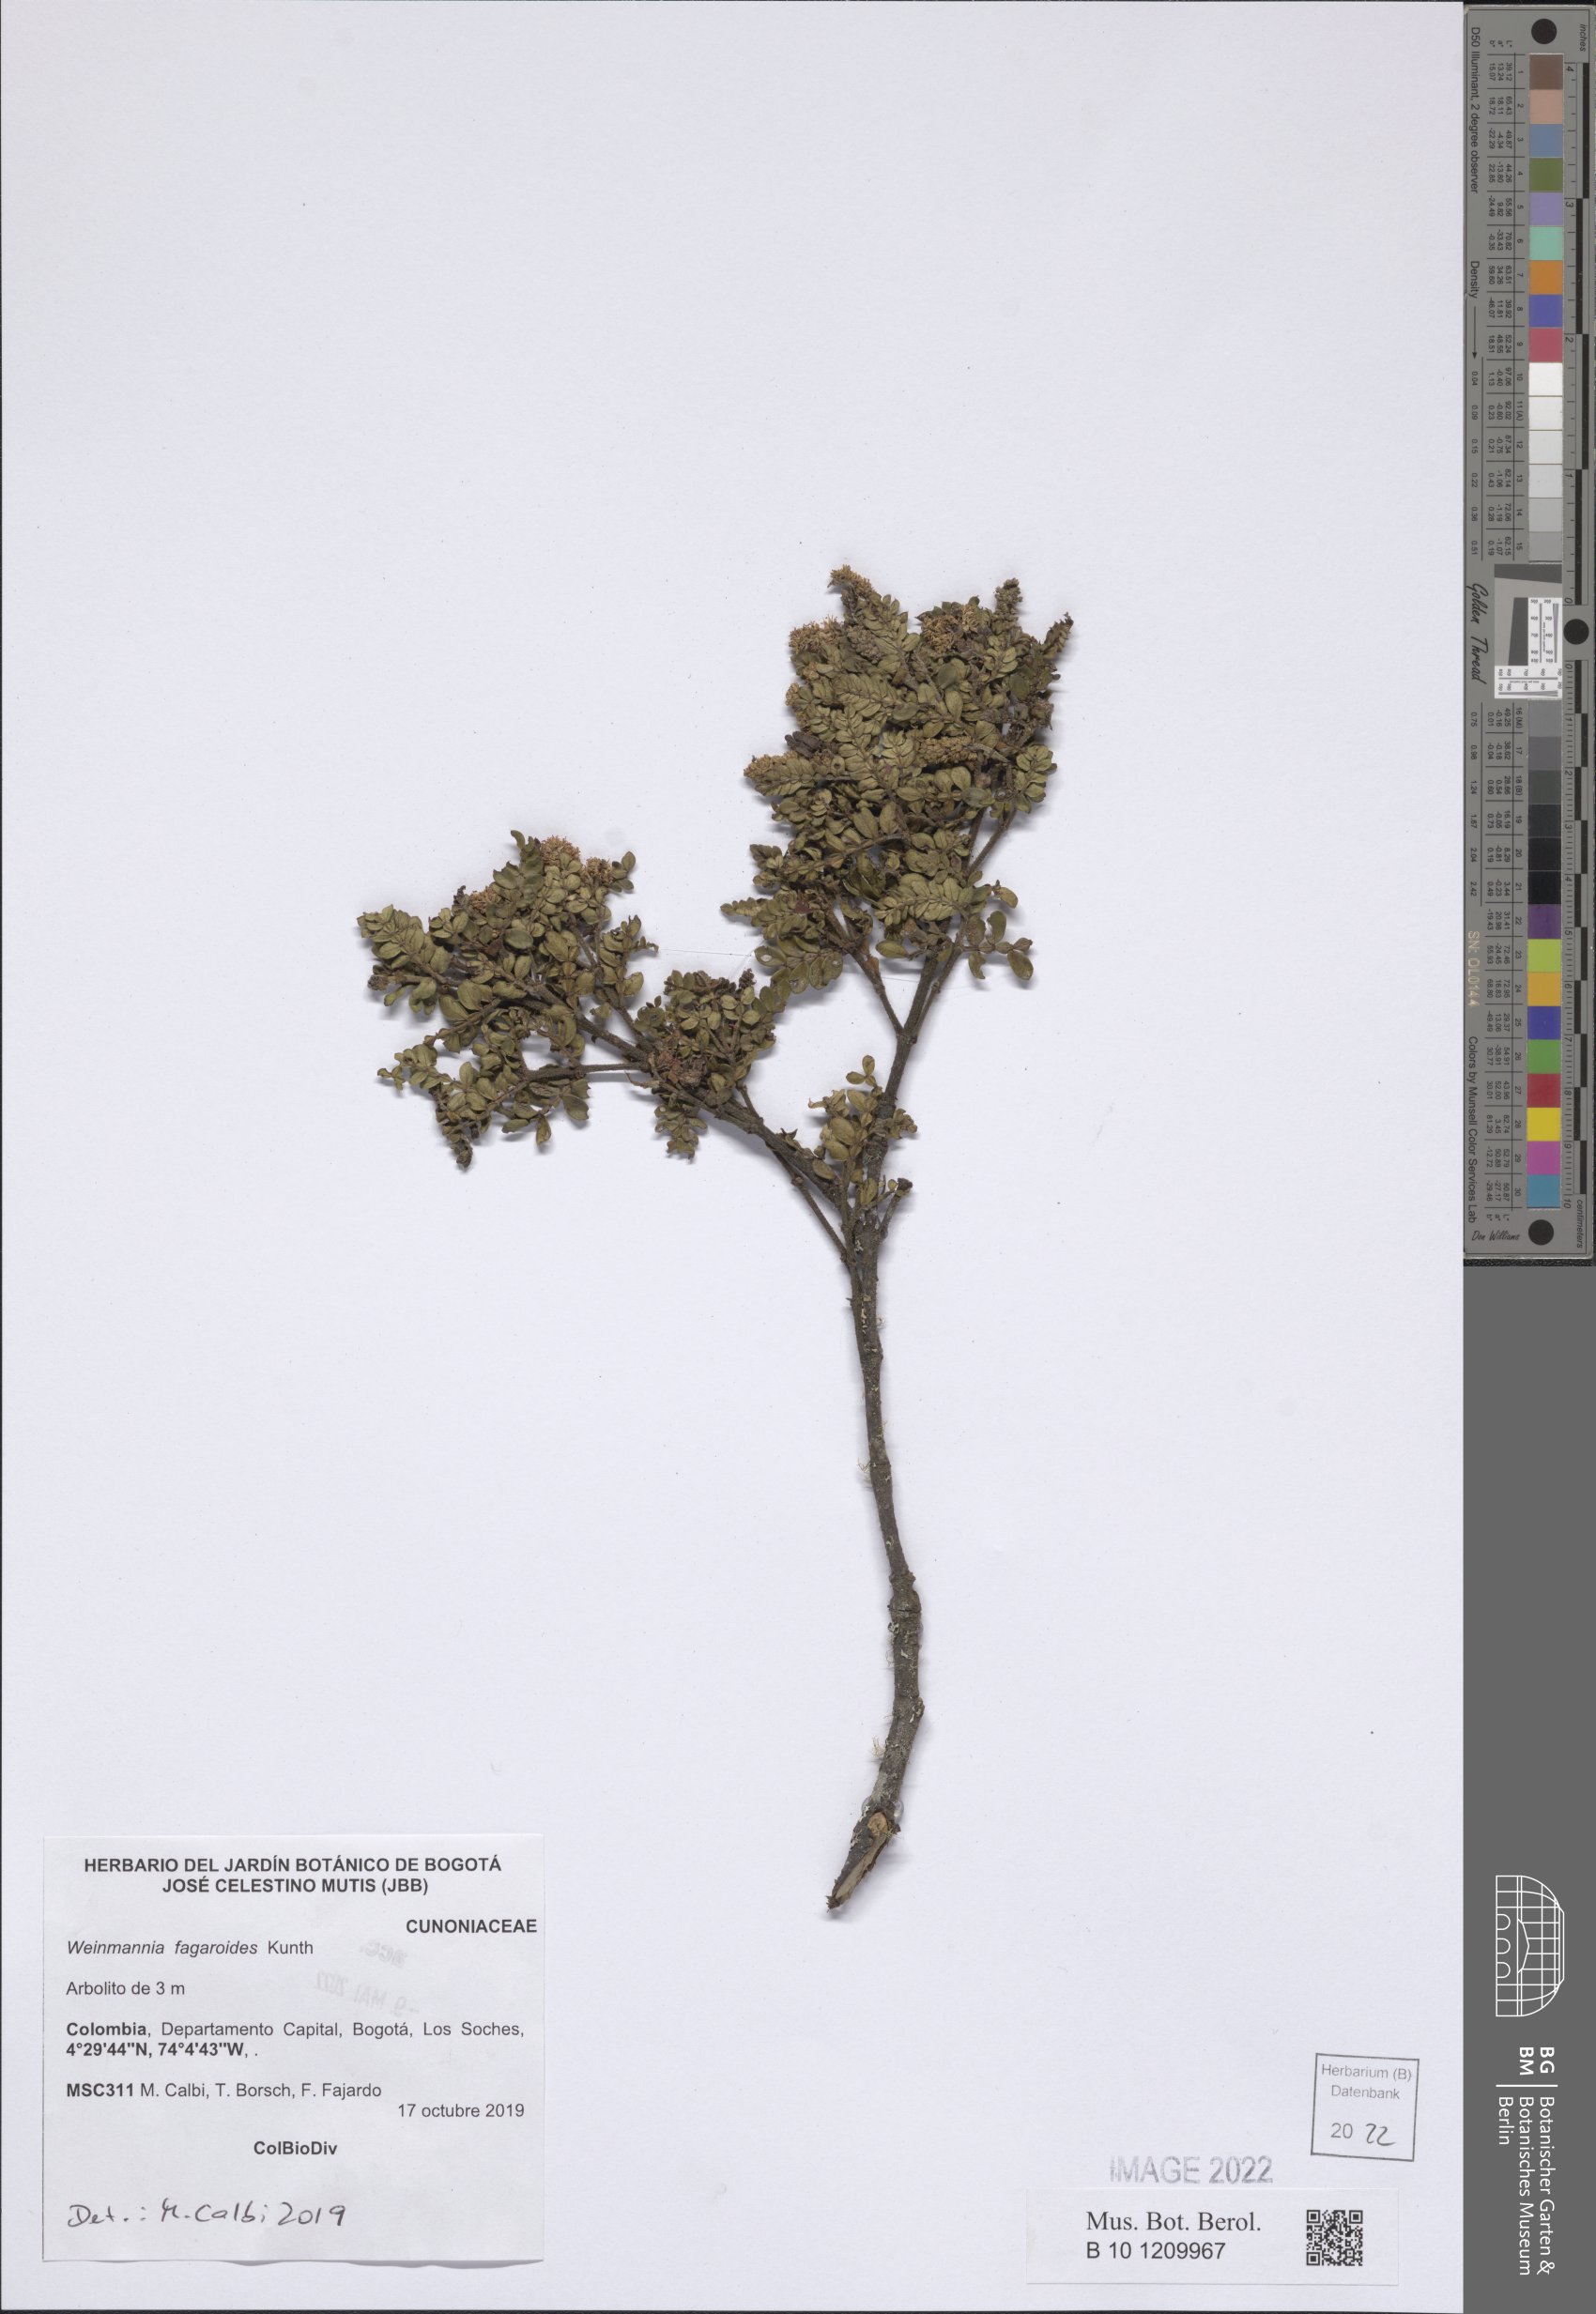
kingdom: Plantae
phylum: Tracheophyta
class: Magnoliopsida
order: Oxalidales
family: Cunoniaceae
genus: Weinmannia
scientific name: Weinmannia fagaroides
